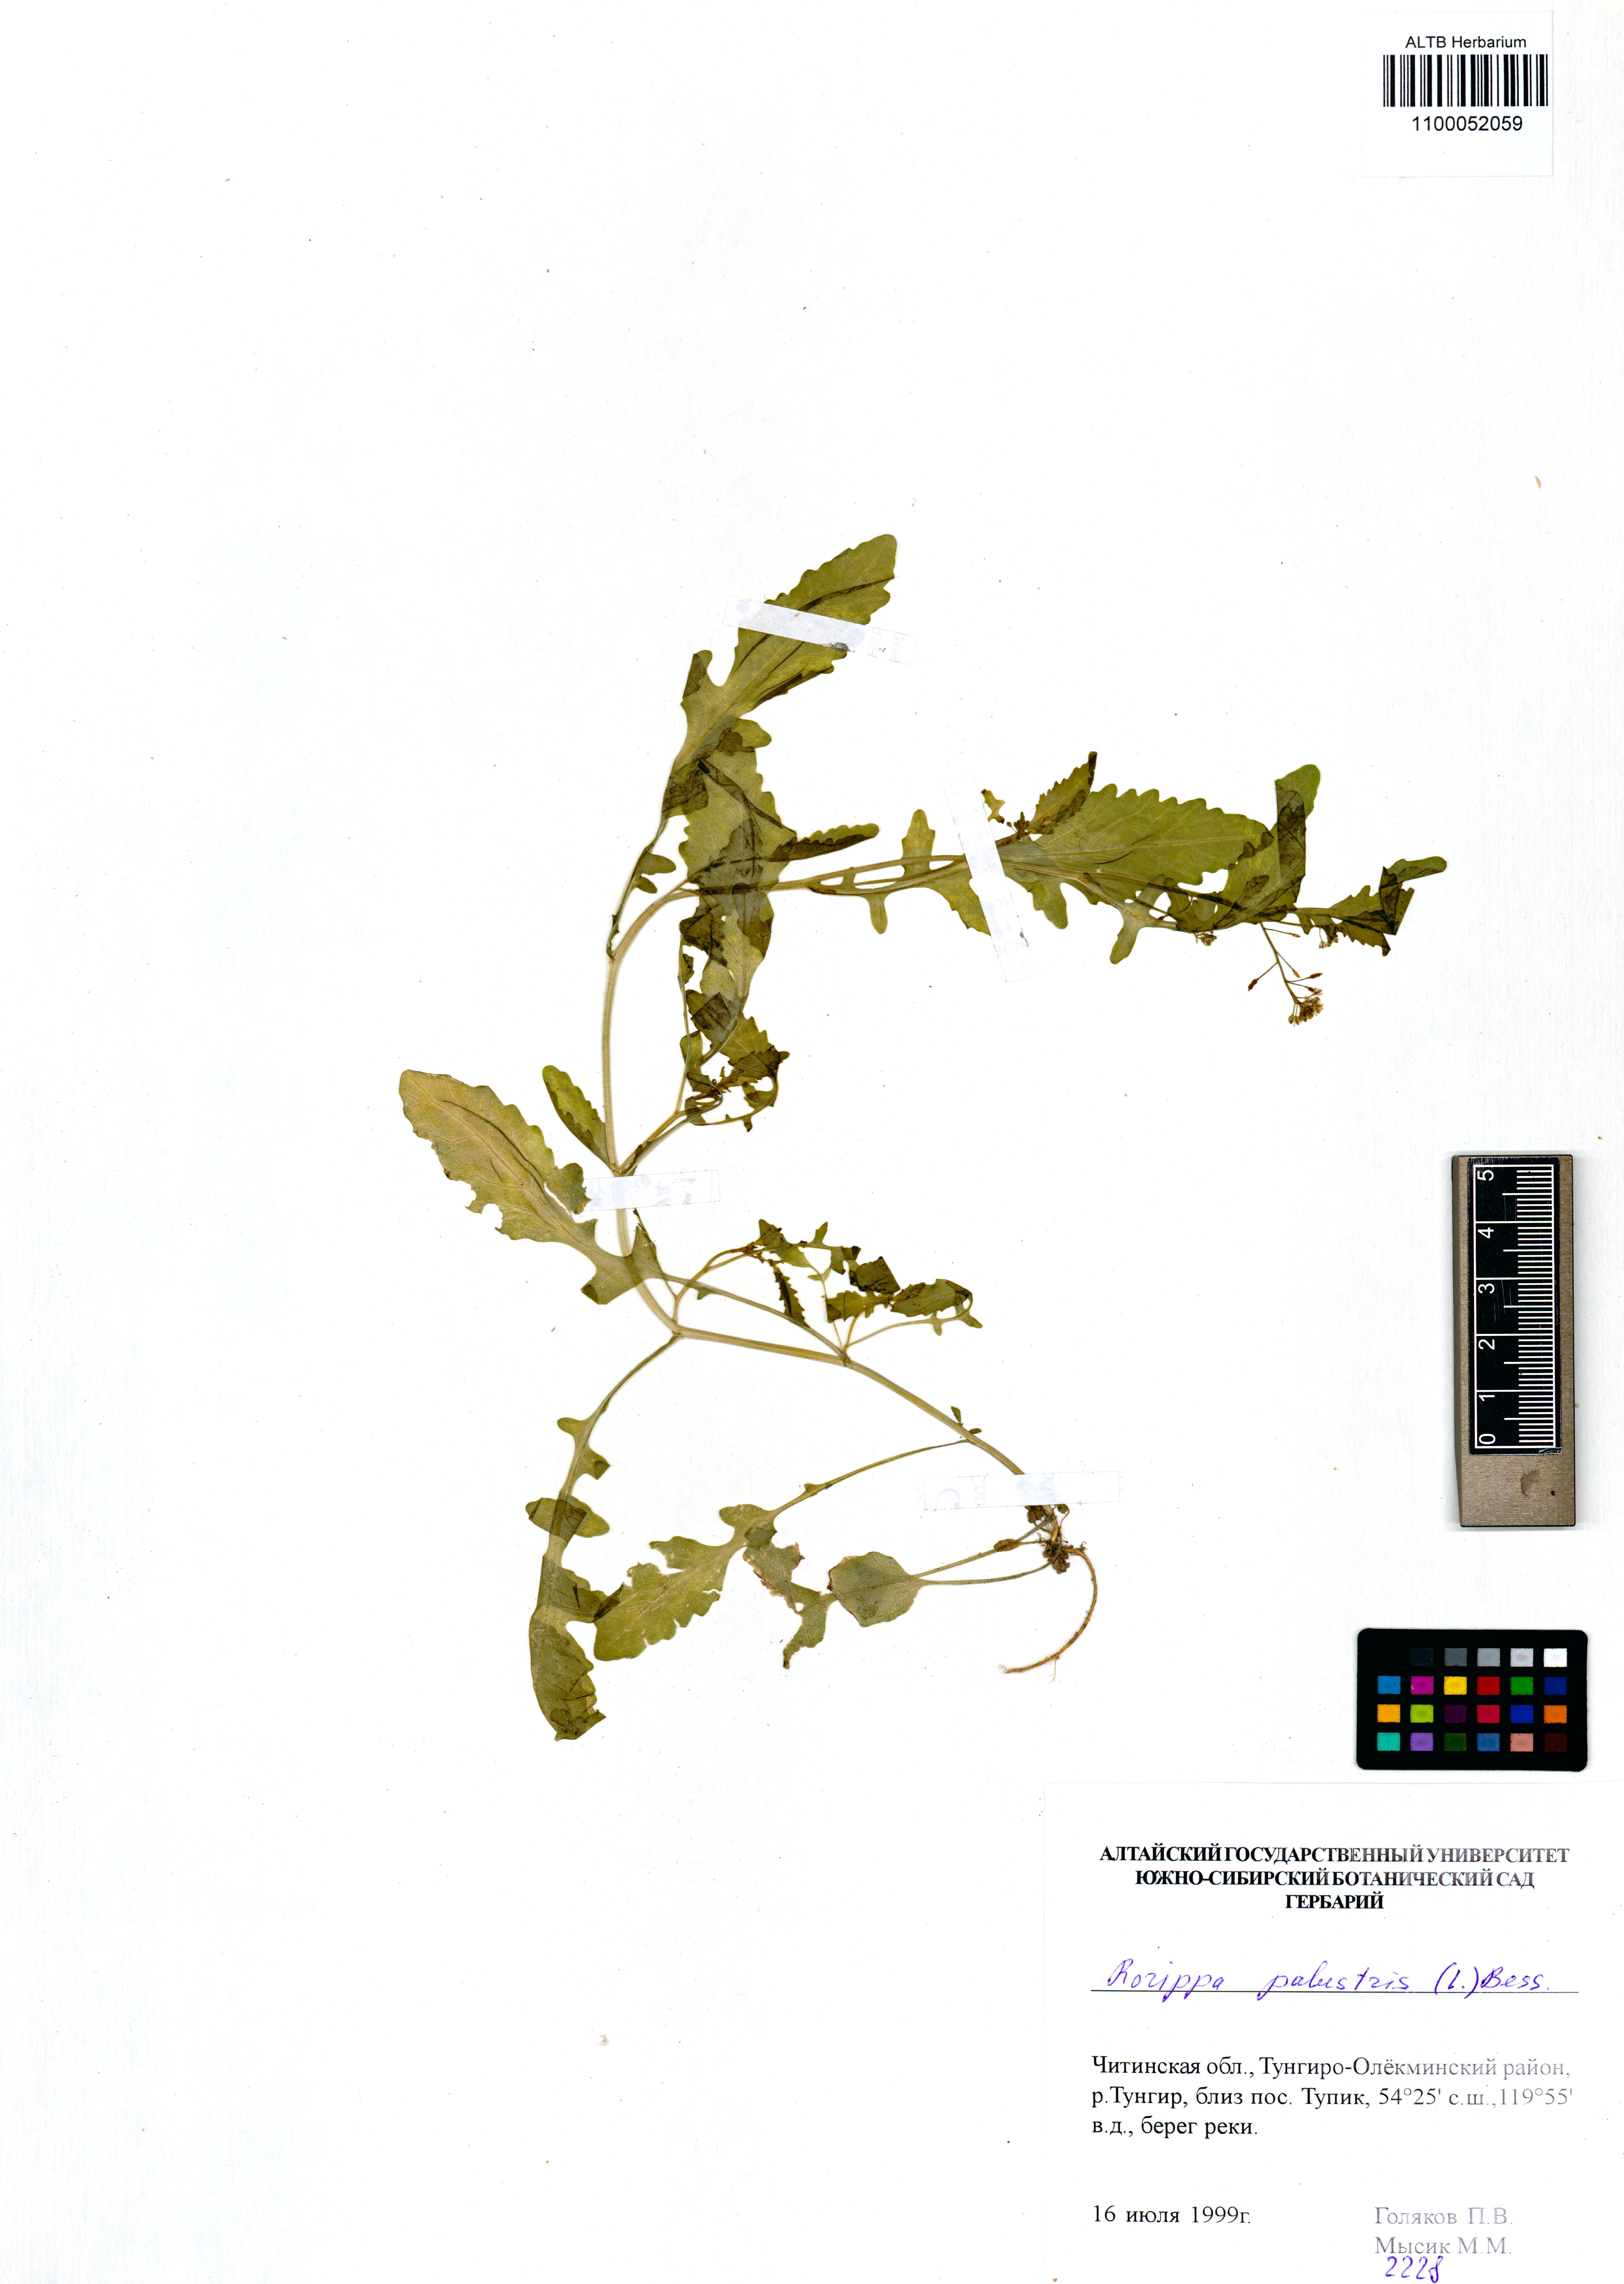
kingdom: Plantae
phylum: Tracheophyta
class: Magnoliopsida
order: Brassicales
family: Brassicaceae
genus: Rorippa
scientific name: Rorippa palustris
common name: Marsh yellow-cress
